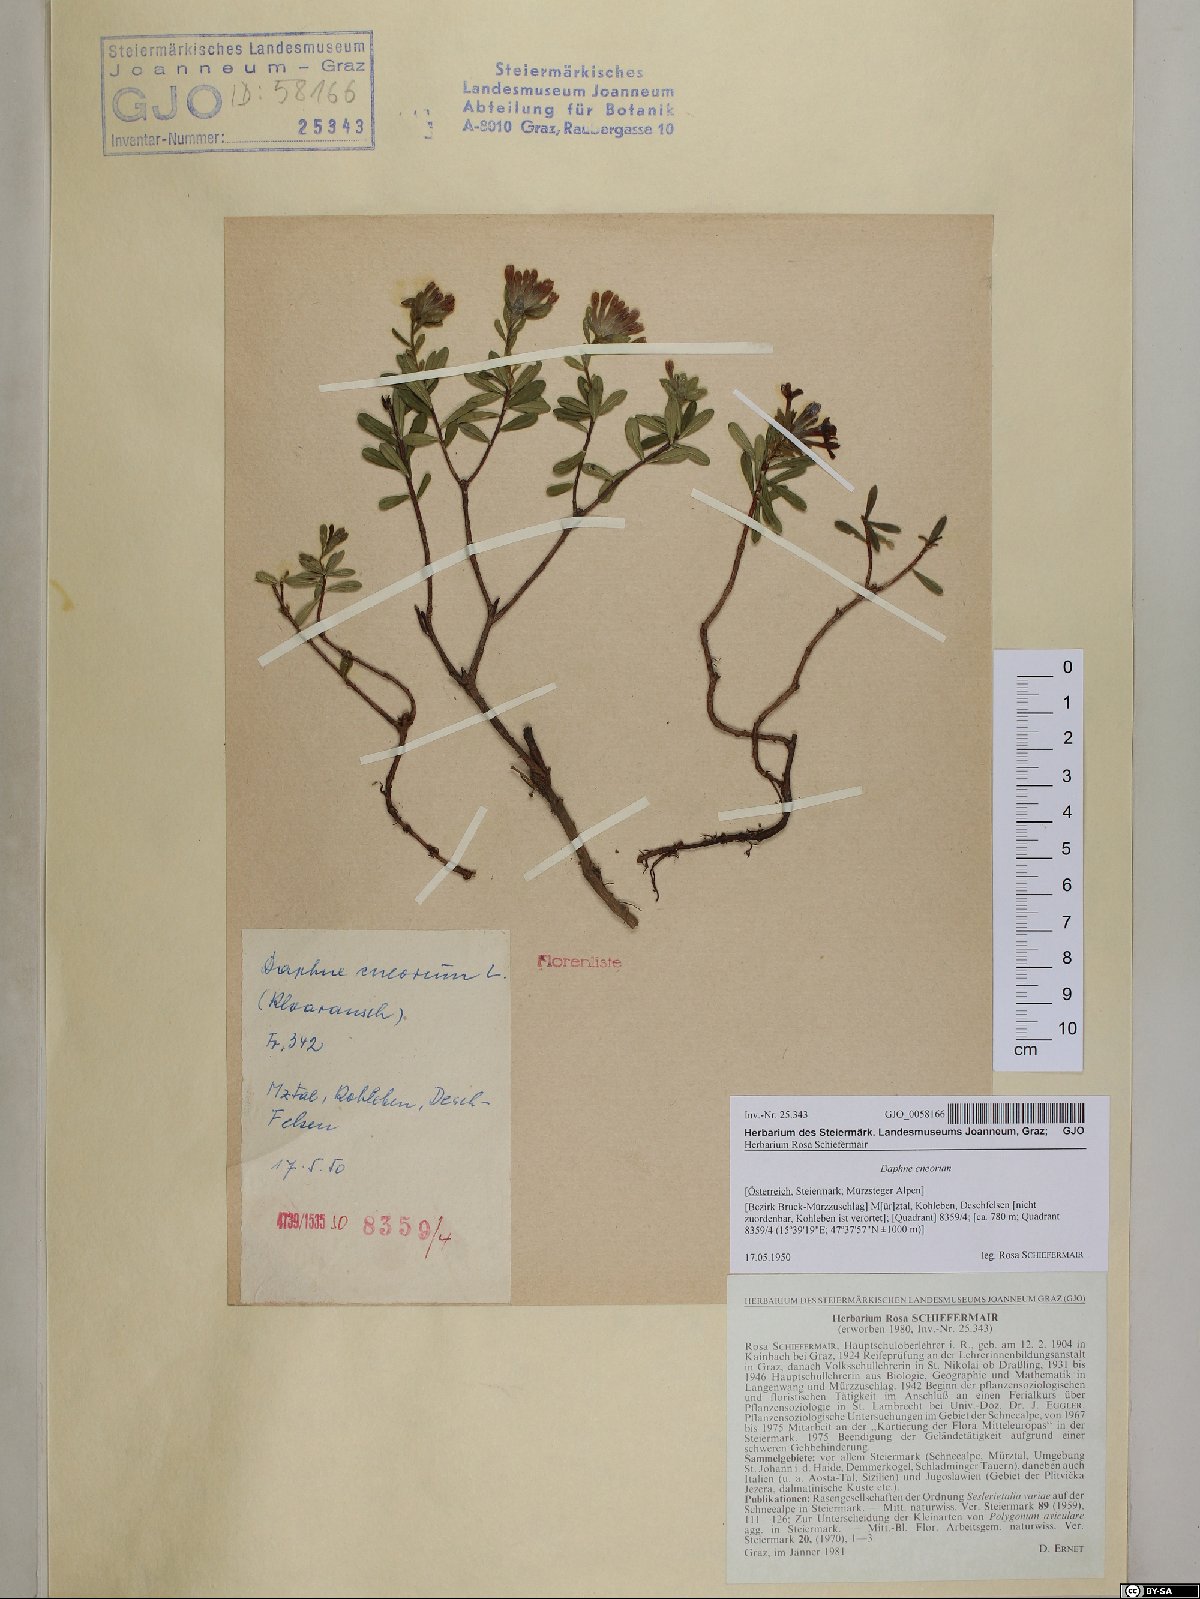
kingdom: Plantae
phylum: Tracheophyta
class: Magnoliopsida
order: Malvales
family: Thymelaeaceae
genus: Daphne
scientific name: Daphne cneorum
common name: Garland-flower
